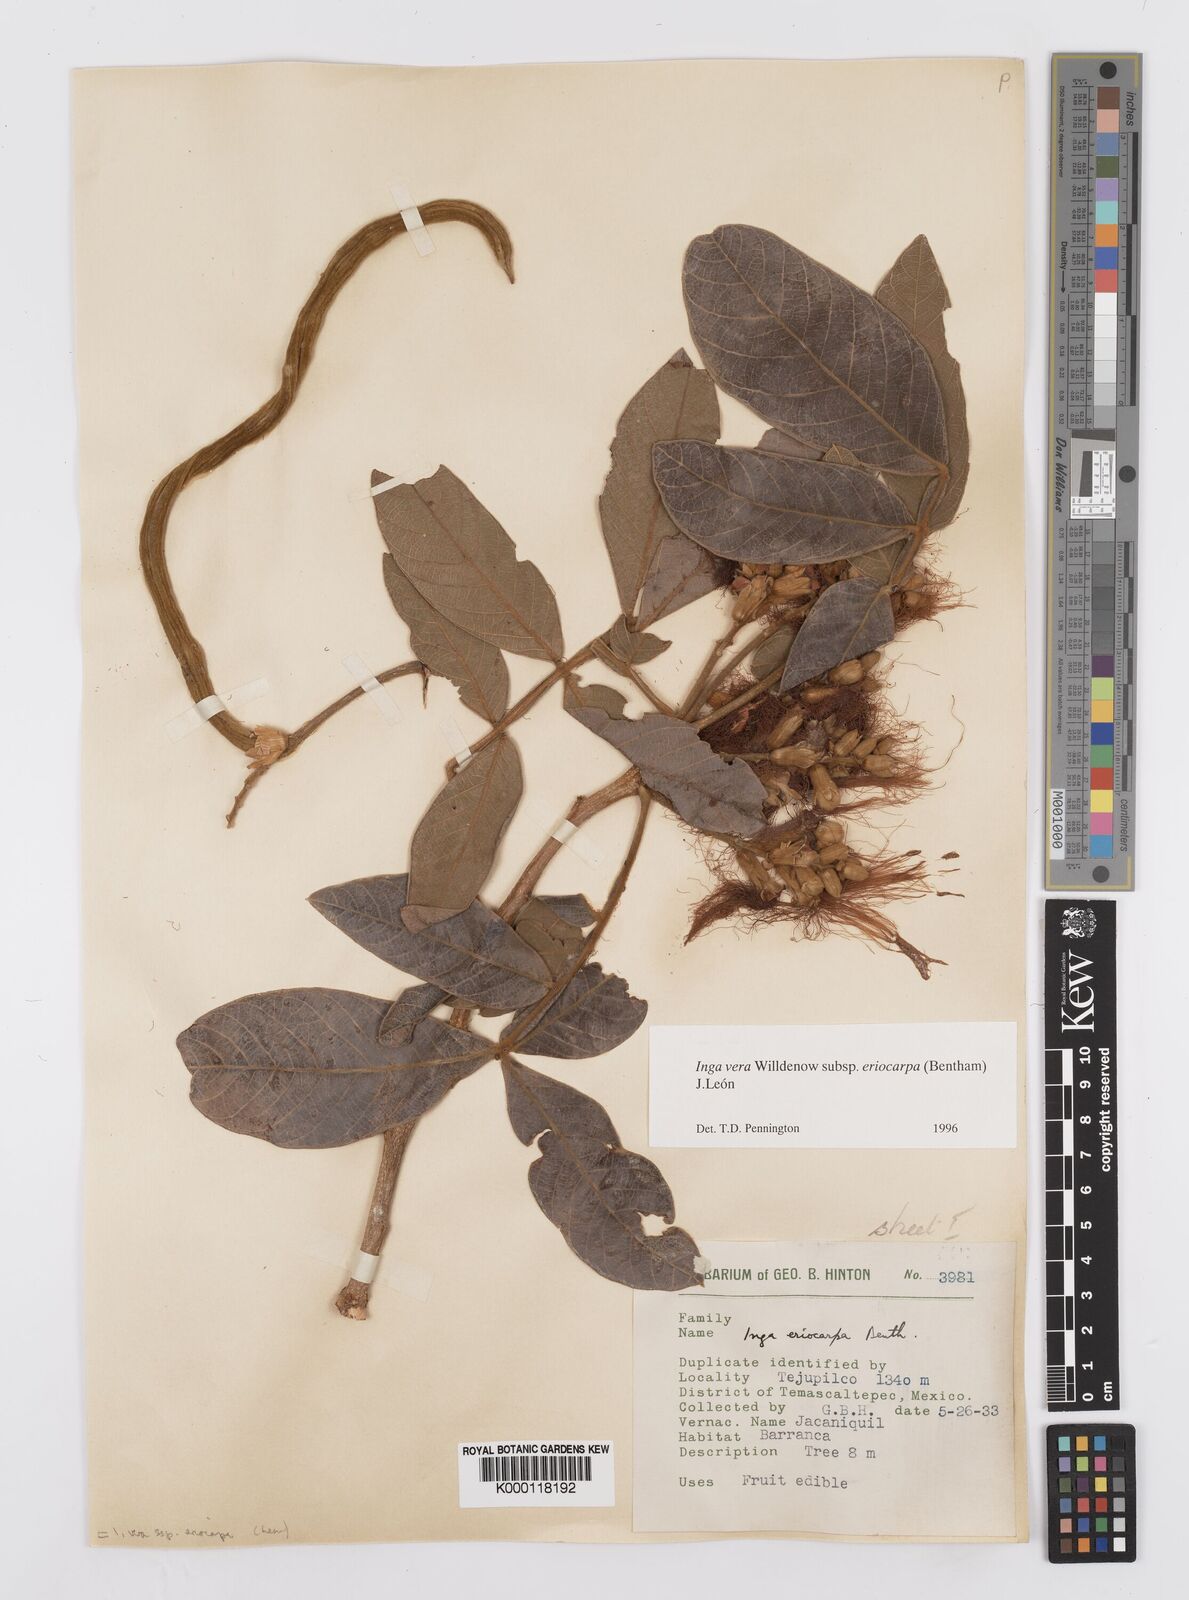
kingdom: Plantae
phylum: Tracheophyta
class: Magnoliopsida
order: Fabales
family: Fabaceae
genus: Inga
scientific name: Inga vera
